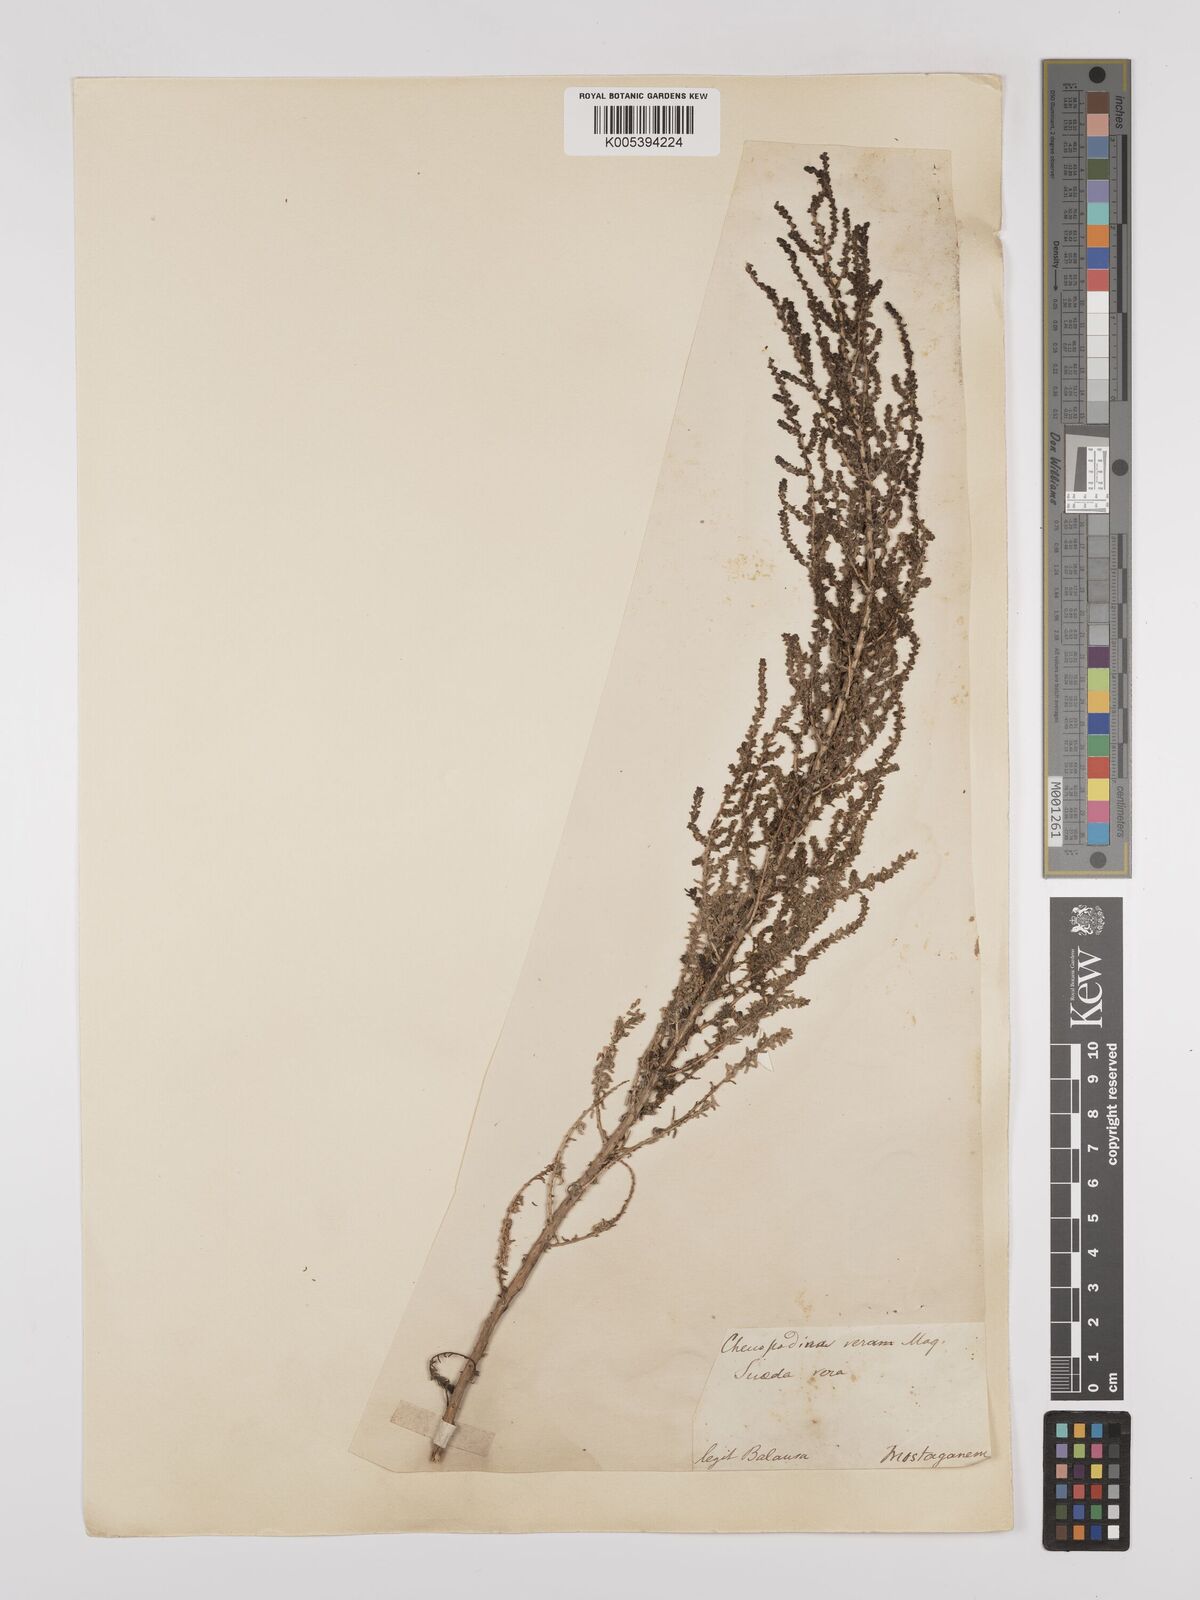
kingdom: Plantae
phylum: Tracheophyta
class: Magnoliopsida
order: Caryophyllales
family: Amaranthaceae
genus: Suaeda
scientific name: Suaeda
